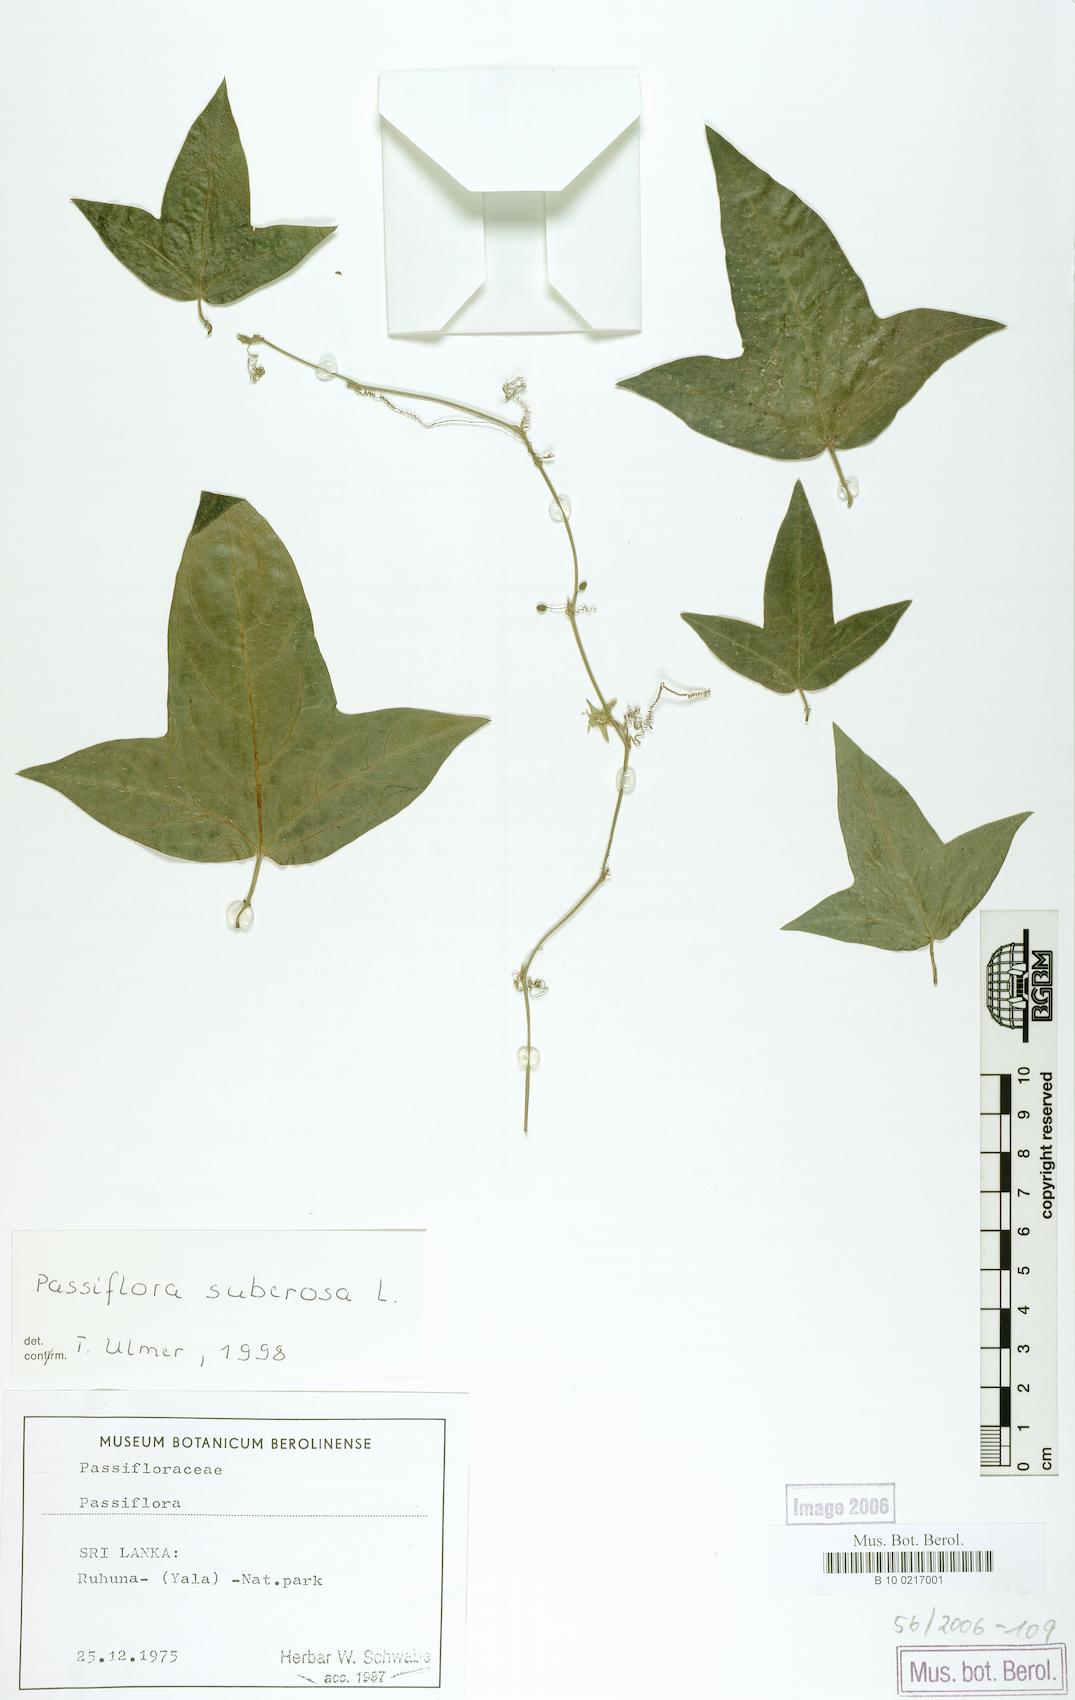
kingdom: Plantae
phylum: Tracheophyta
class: Magnoliopsida
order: Malpighiales
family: Passifloraceae
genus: Passiflora
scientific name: Passiflora suberosa
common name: Wild passionfruit
